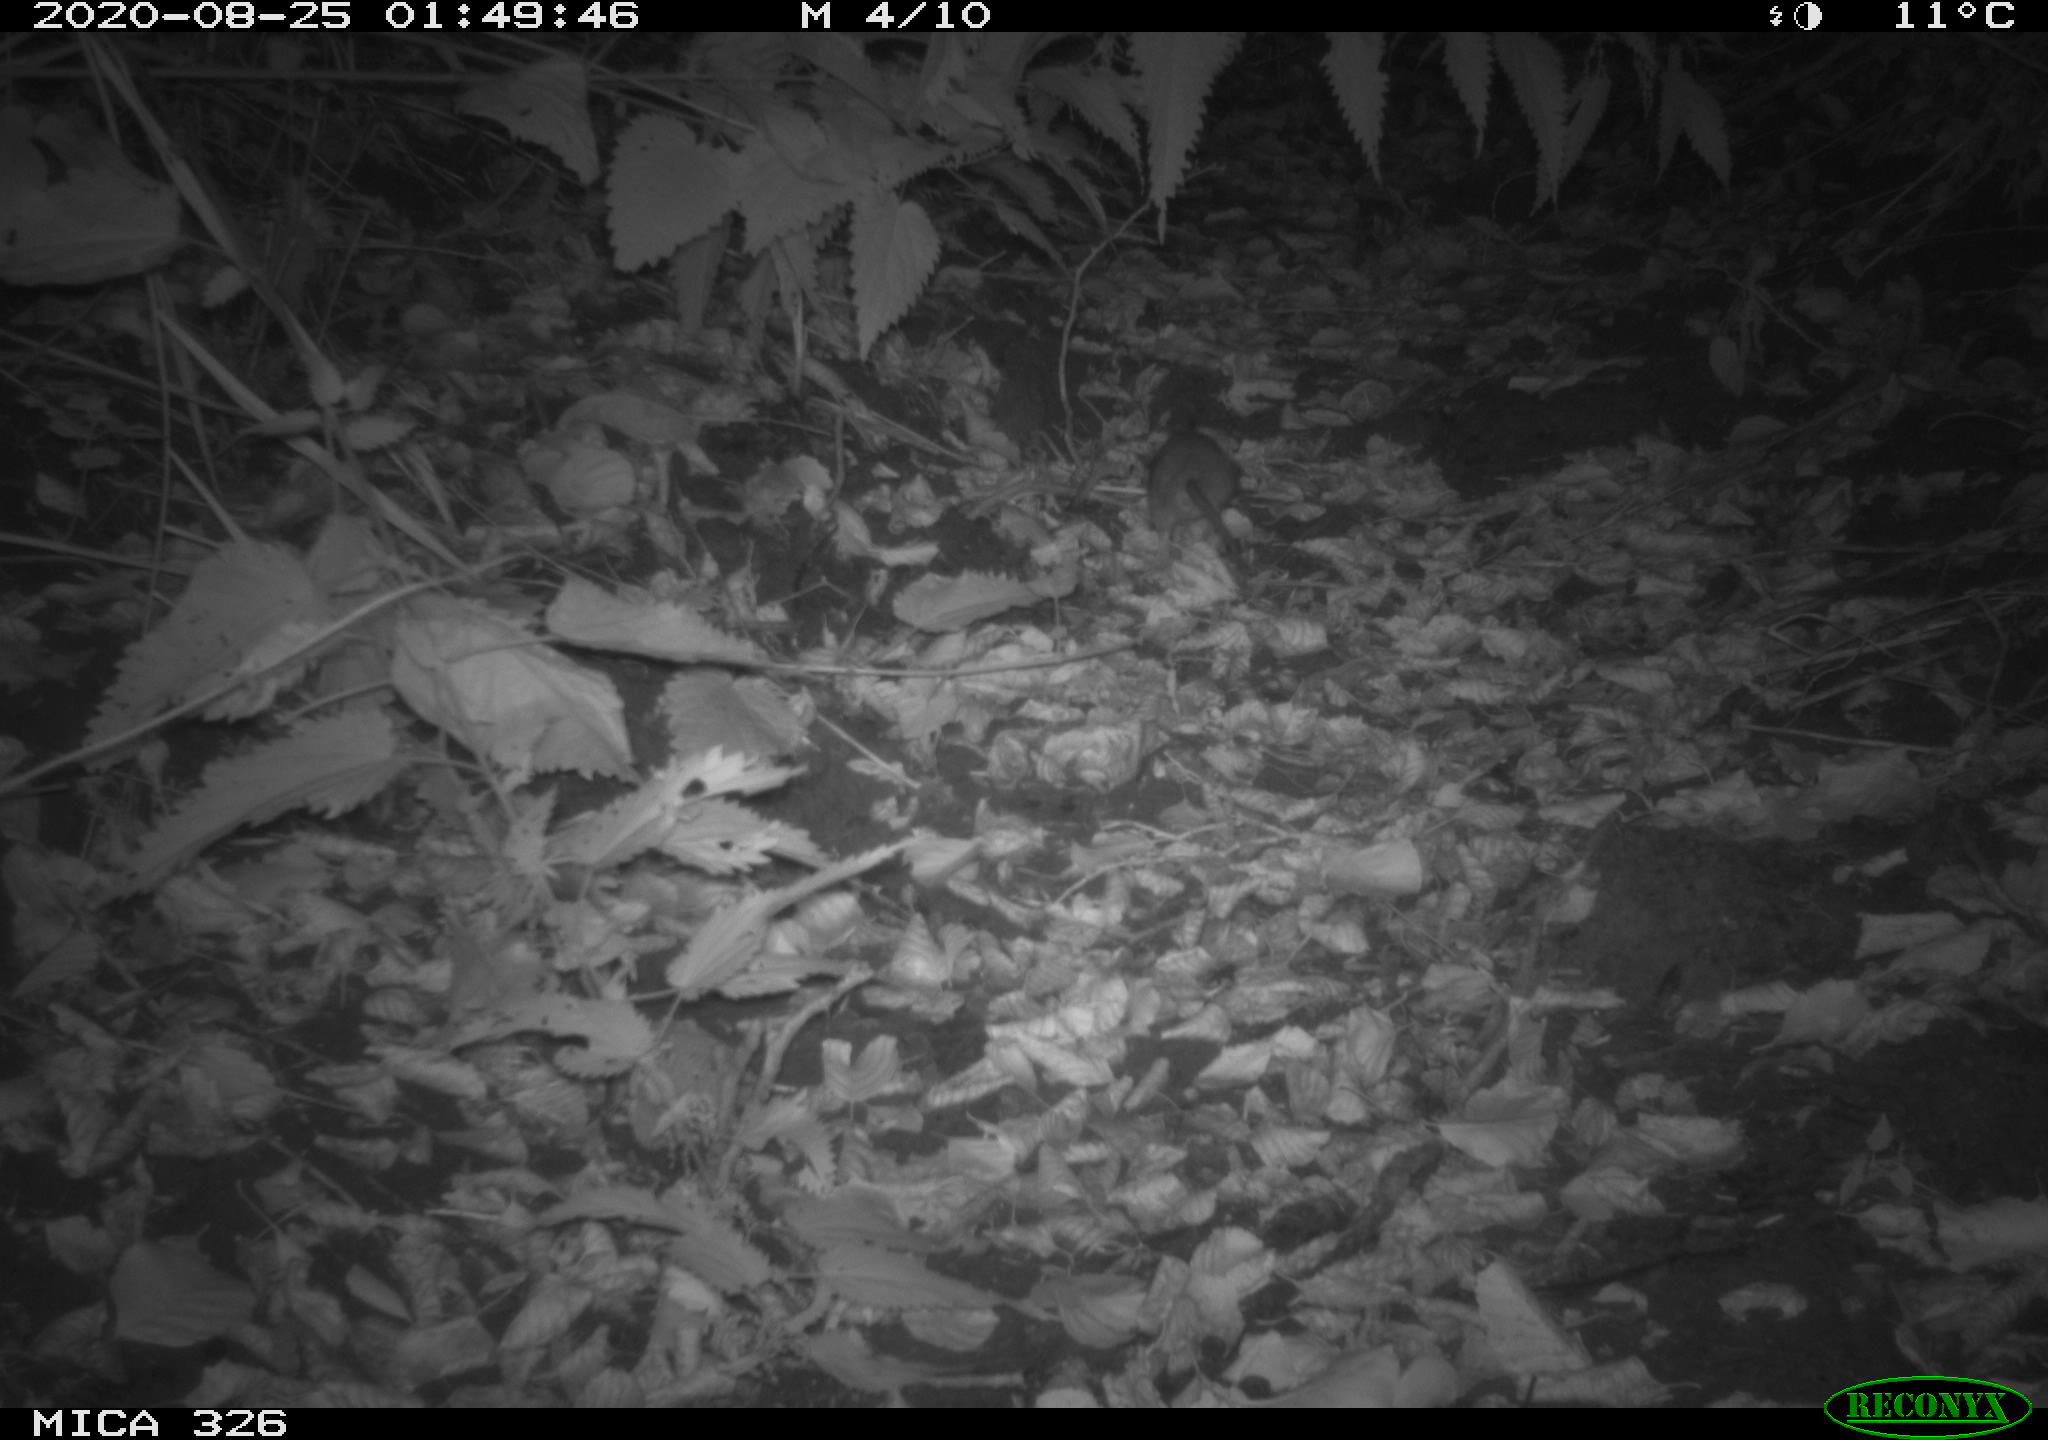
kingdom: Animalia
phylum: Chordata
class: Mammalia
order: Rodentia
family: Muridae
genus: Rattus
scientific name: Rattus norvegicus
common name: Brown rat
